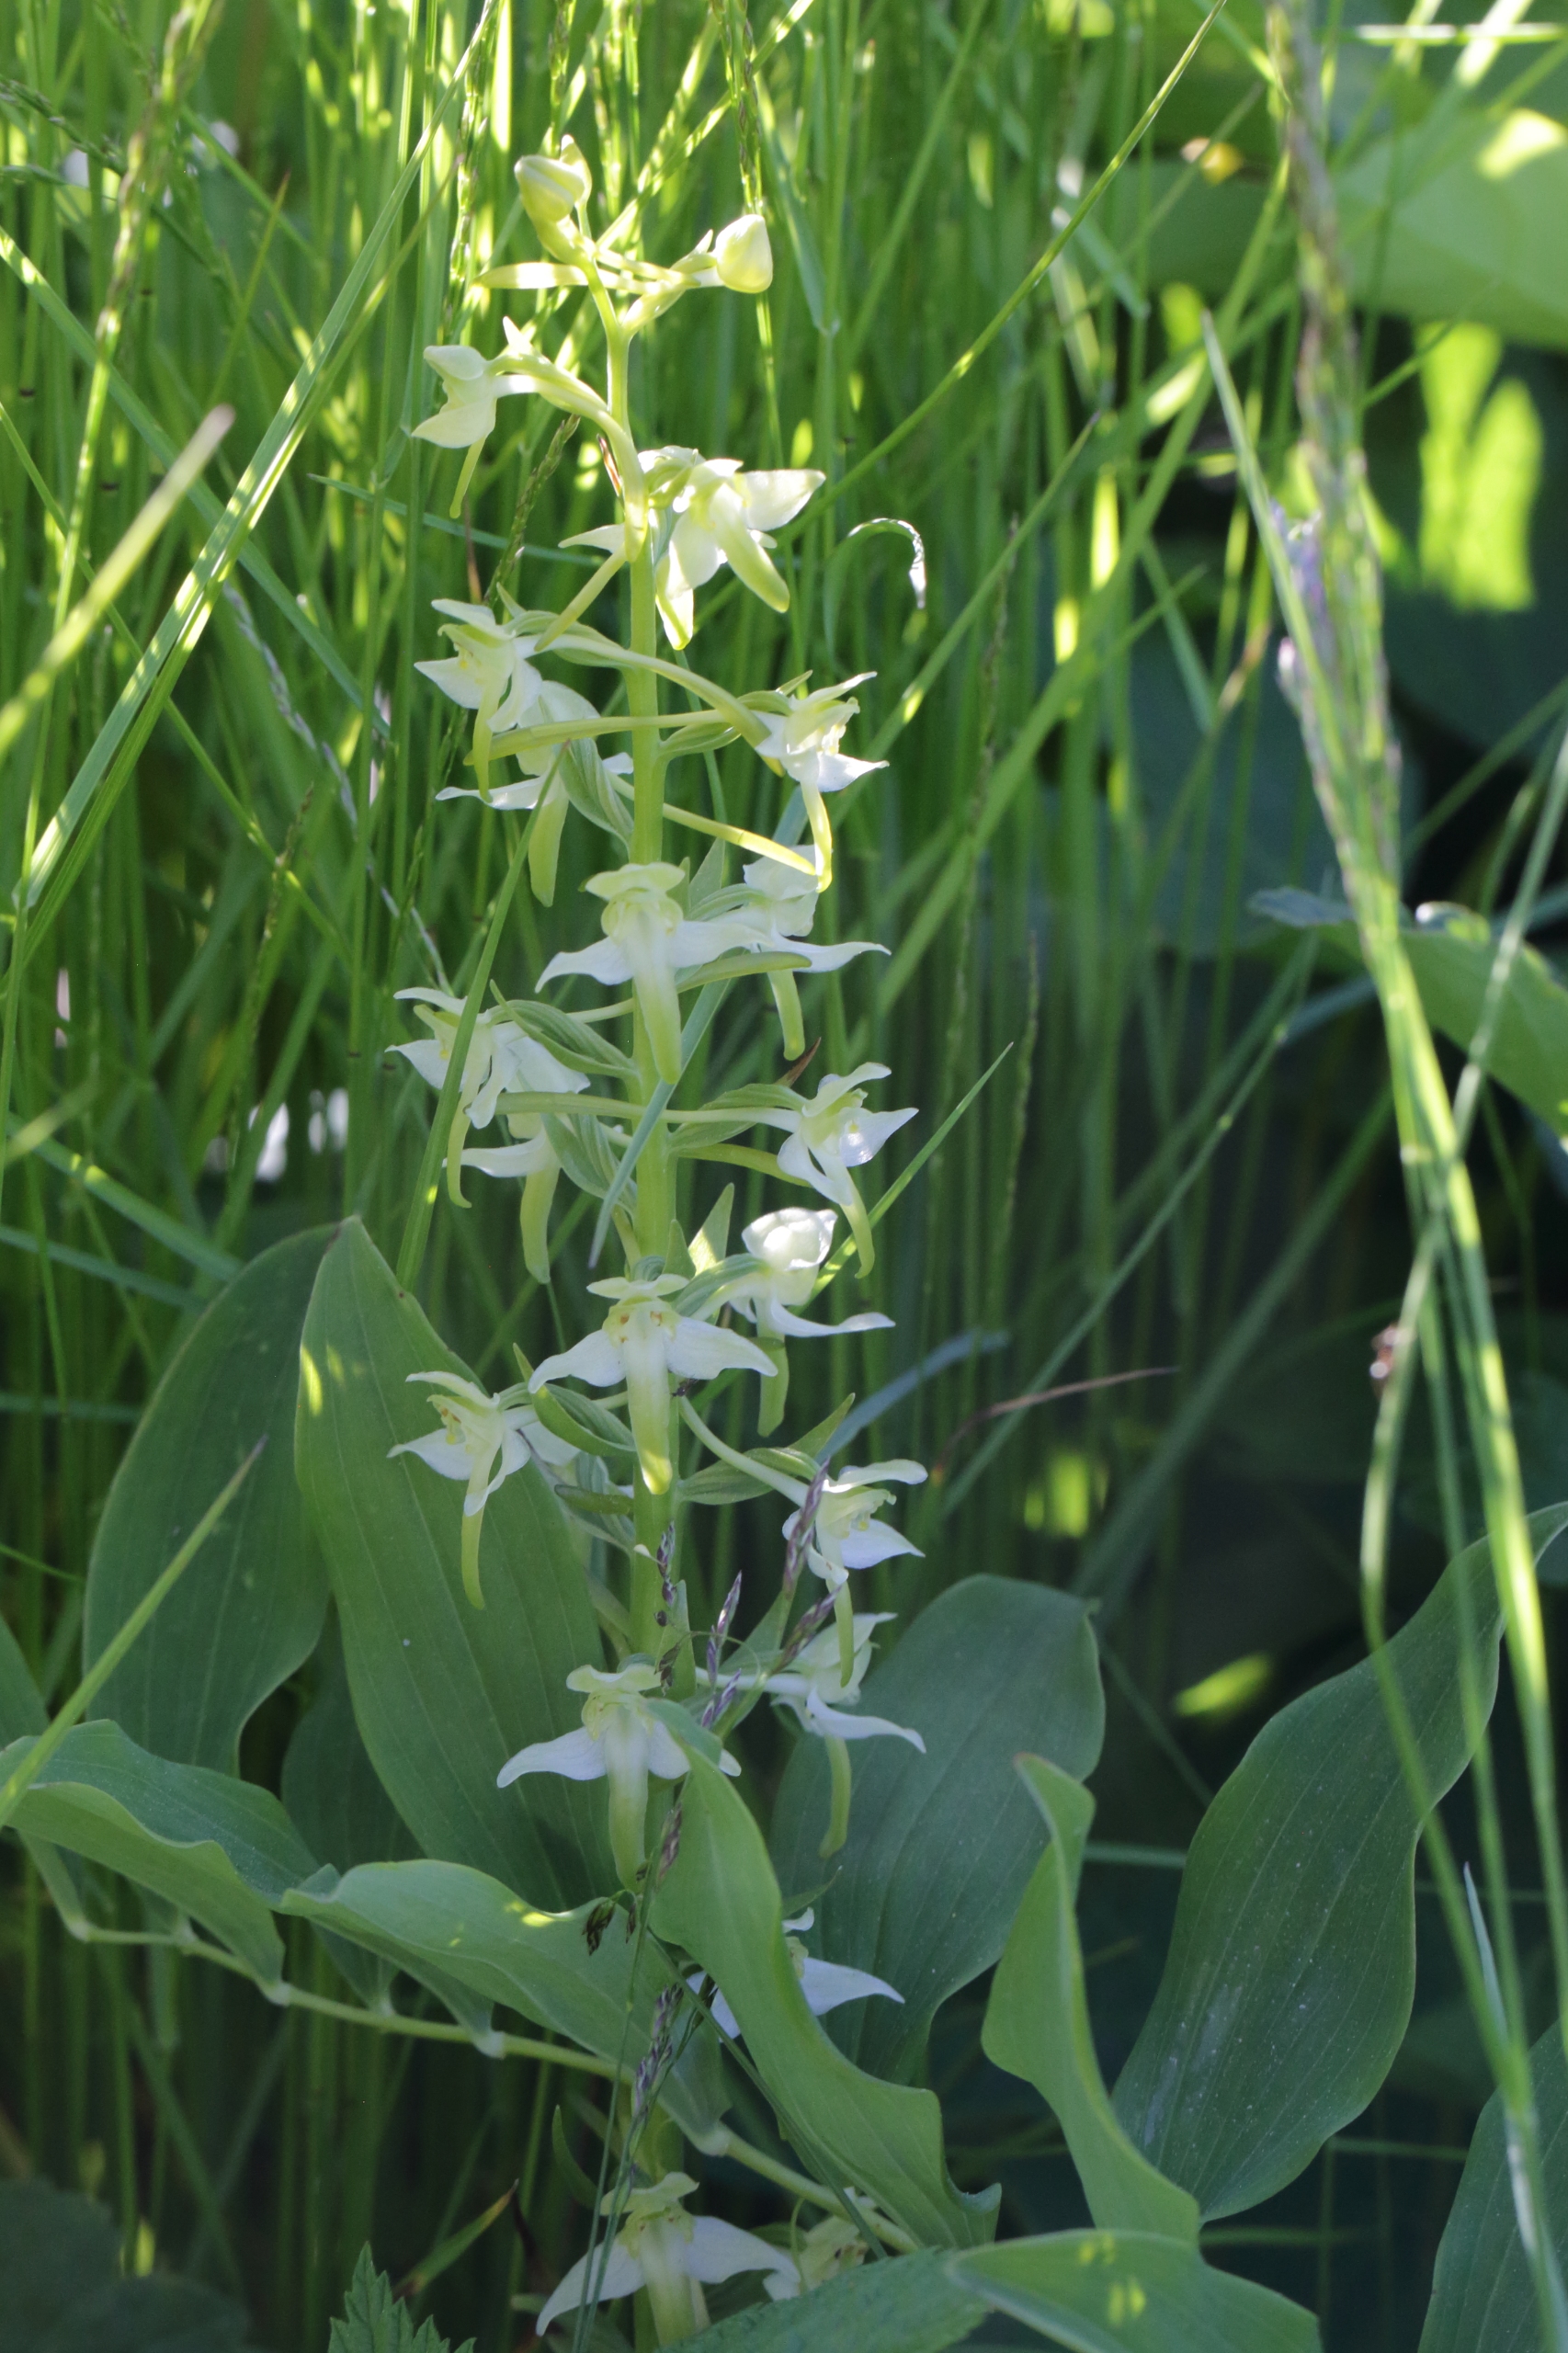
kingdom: Plantae
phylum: Tracheophyta
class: Liliopsida
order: Asparagales
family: Orchidaceae
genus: Platanthera
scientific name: Platanthera chlorantha
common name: Skov-gøgelilje
